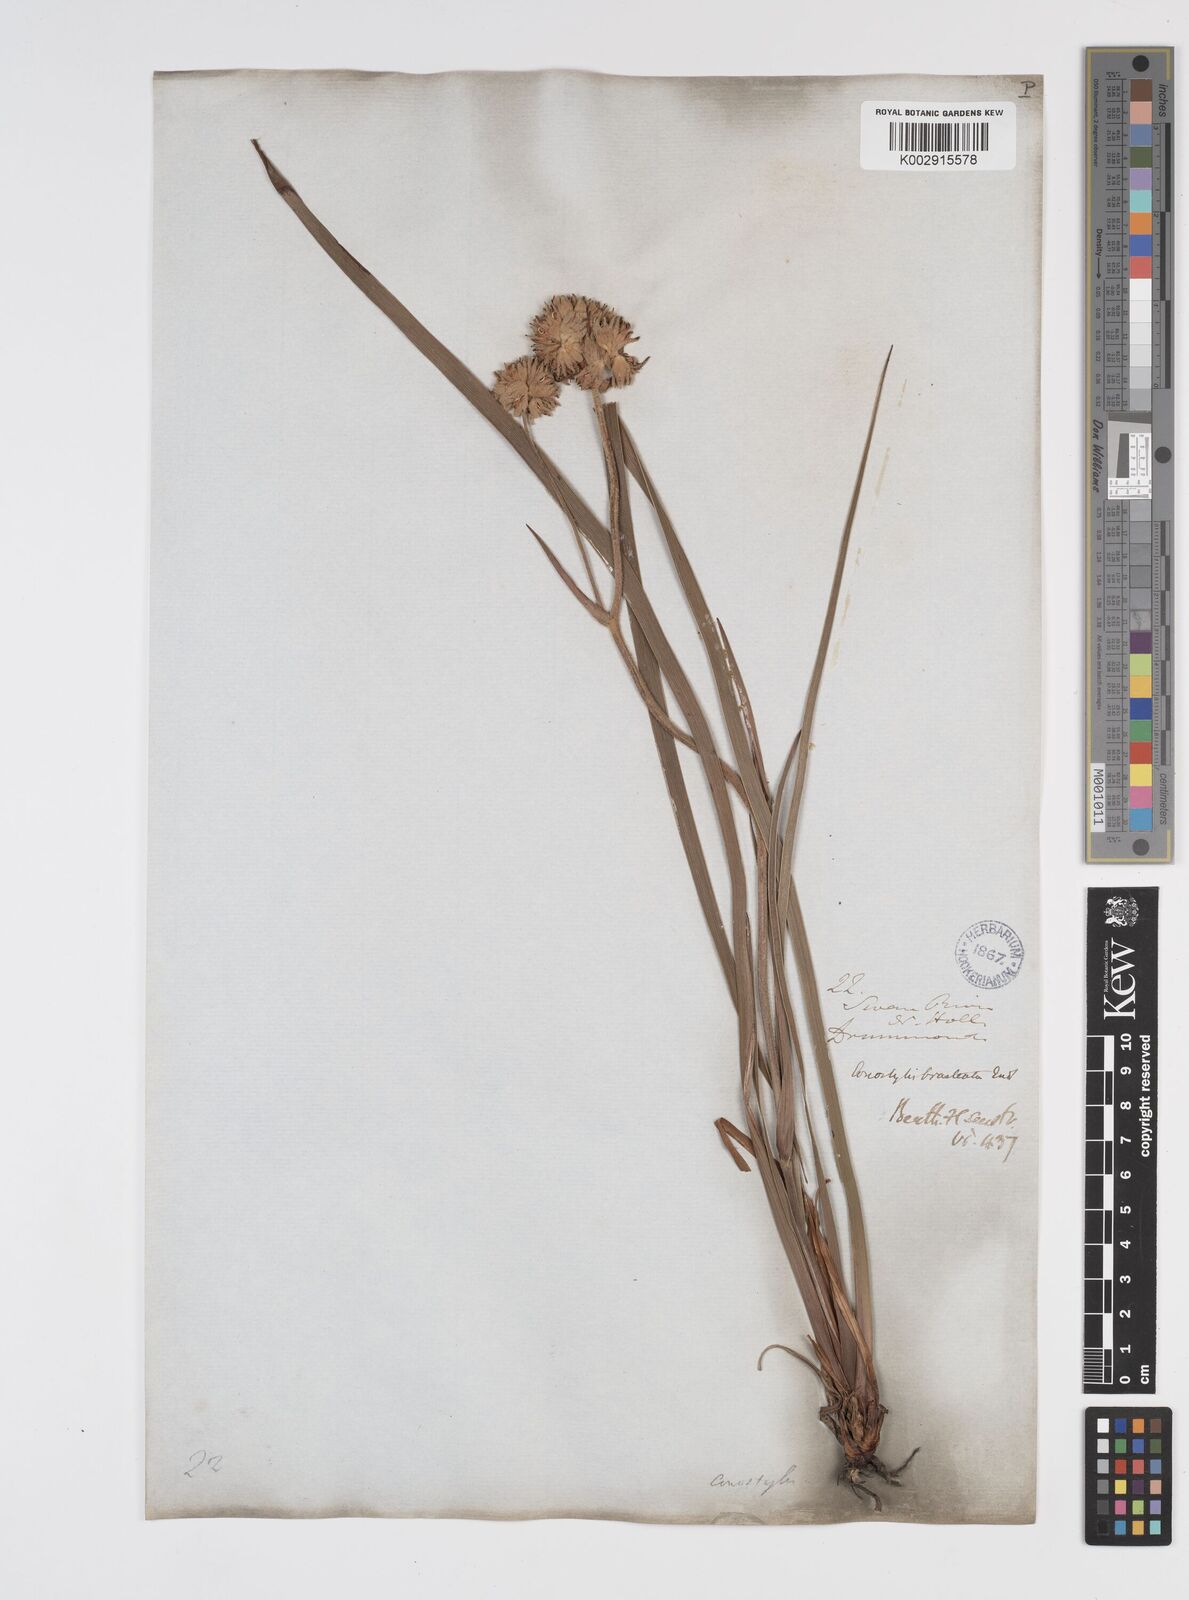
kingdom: Plantae
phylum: Tracheophyta
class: Liliopsida
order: Commelinales
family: Haemodoraceae
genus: Conostylis
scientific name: Conostylis bracteata
